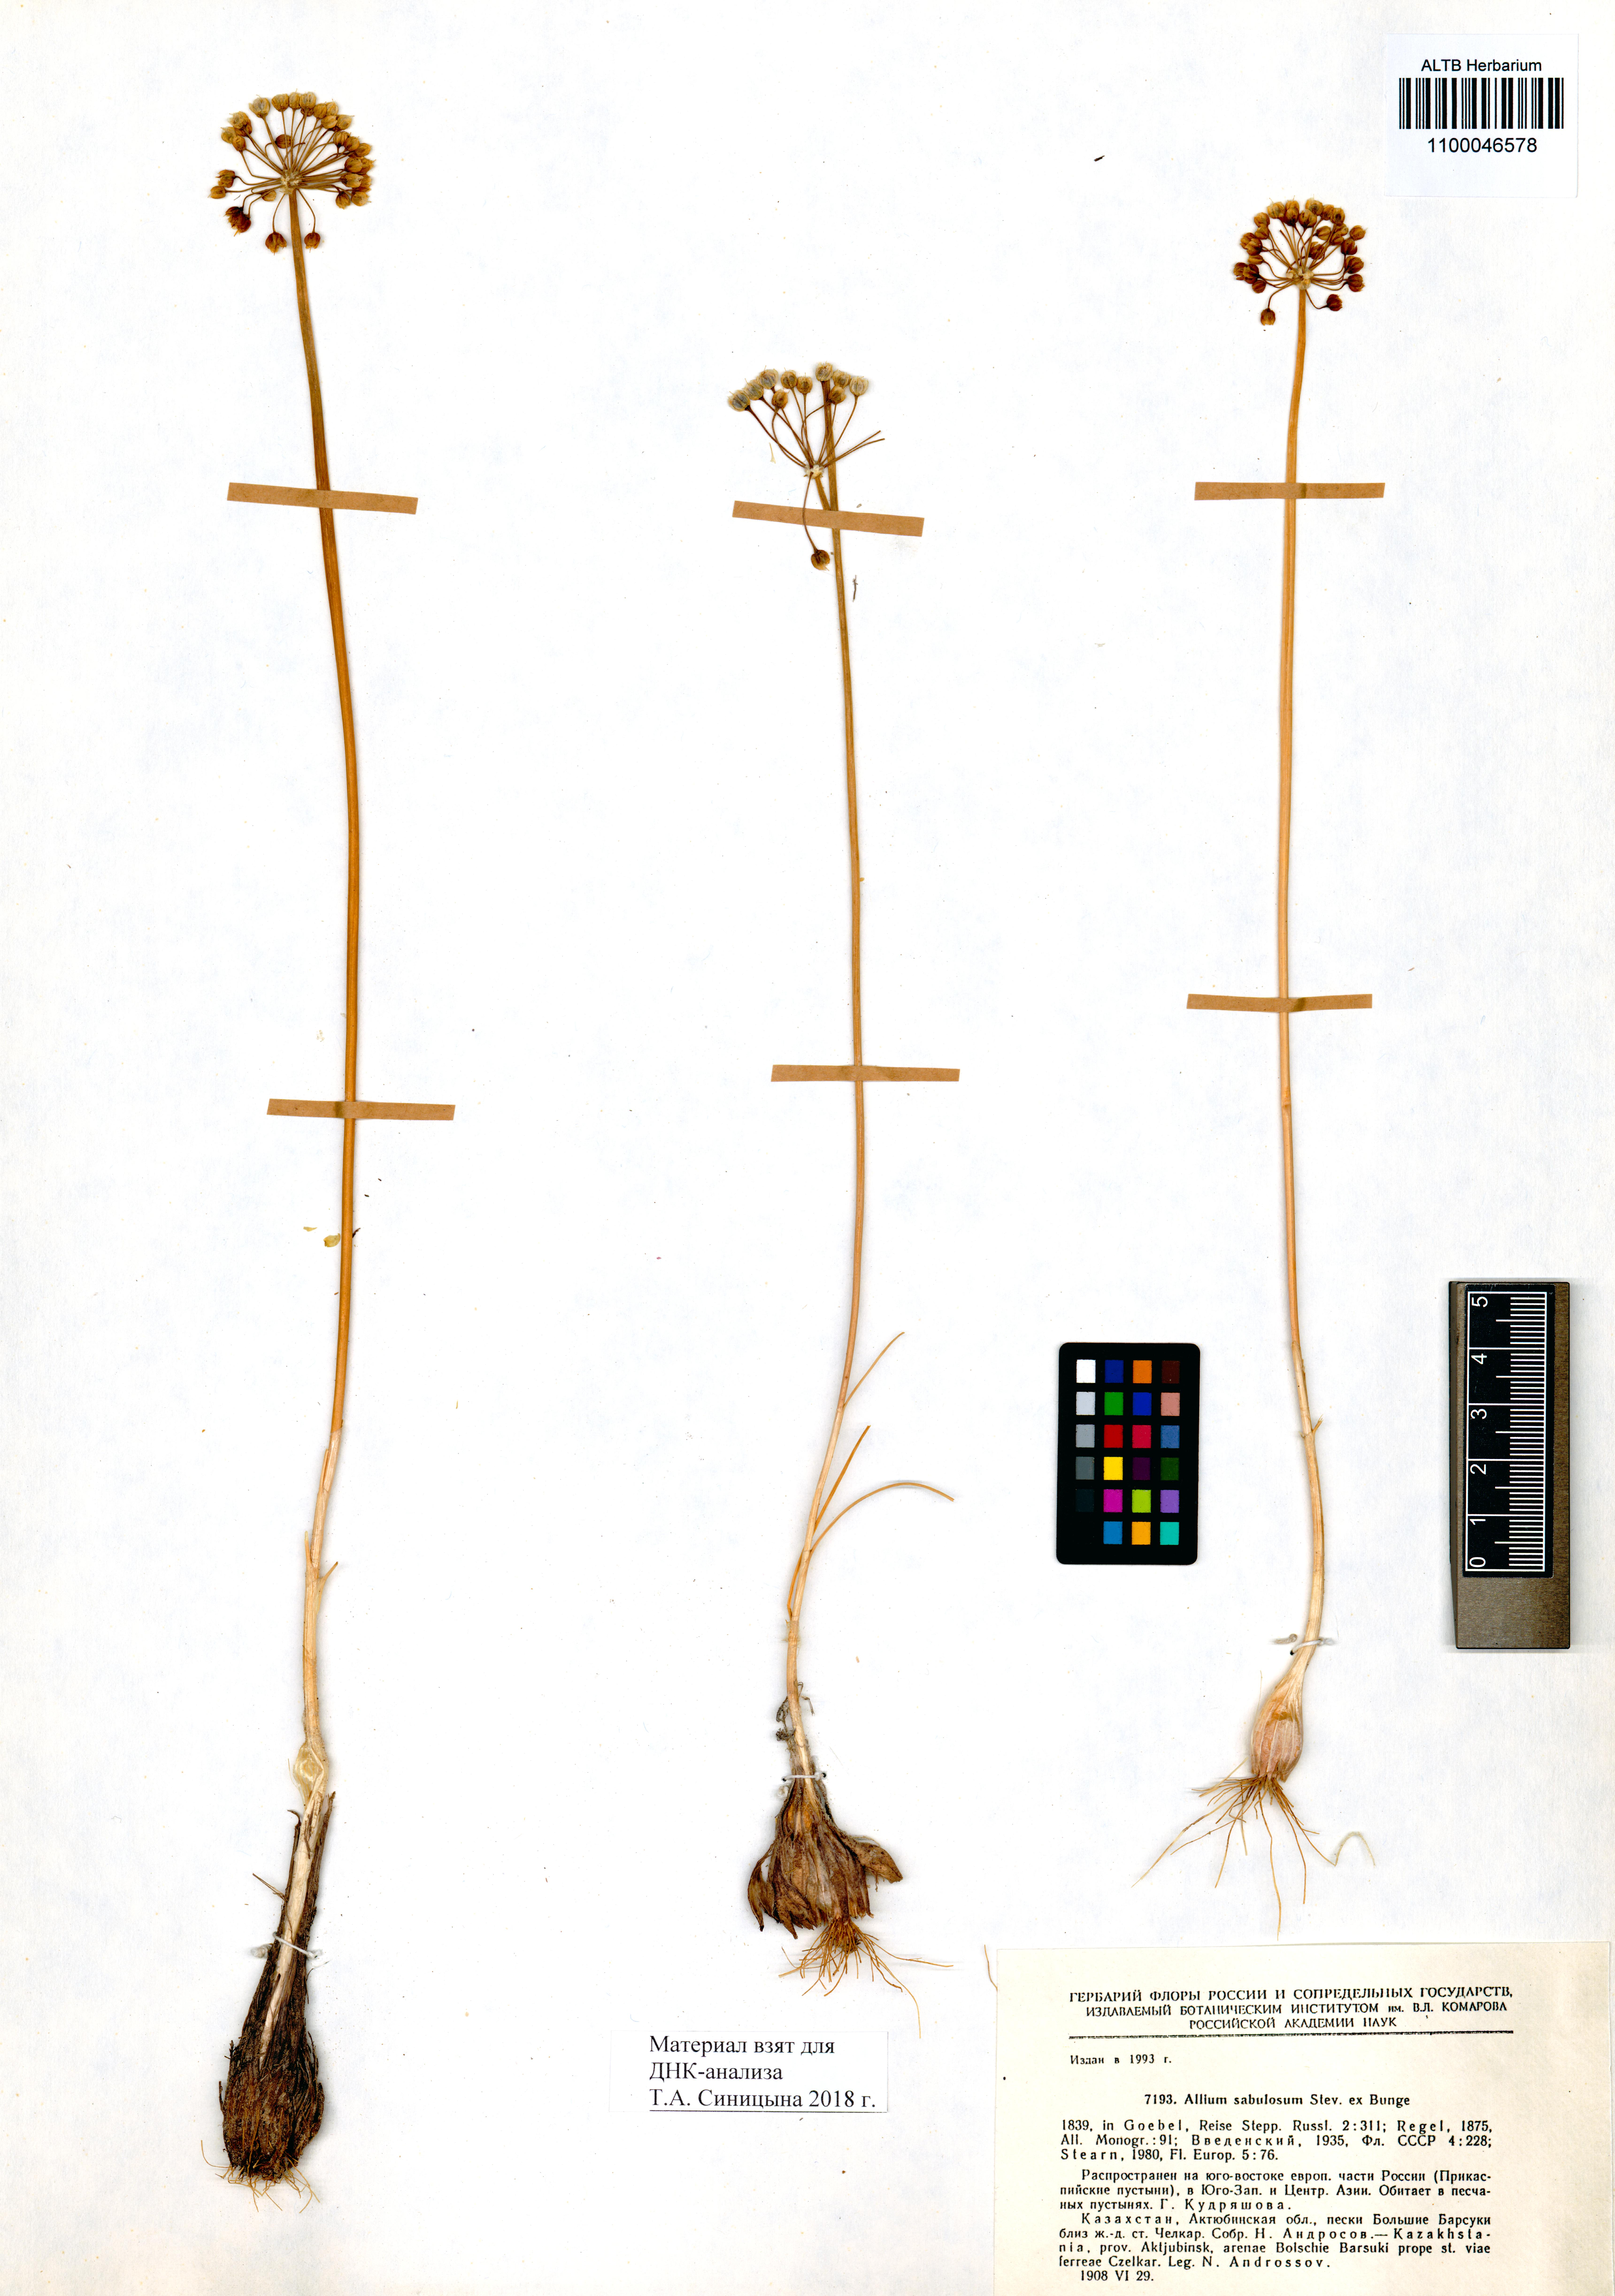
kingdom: Plantae
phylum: Tracheophyta
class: Liliopsida
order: Asparagales
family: Amaryllidaceae
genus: Allium
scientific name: Allium sabulosum
